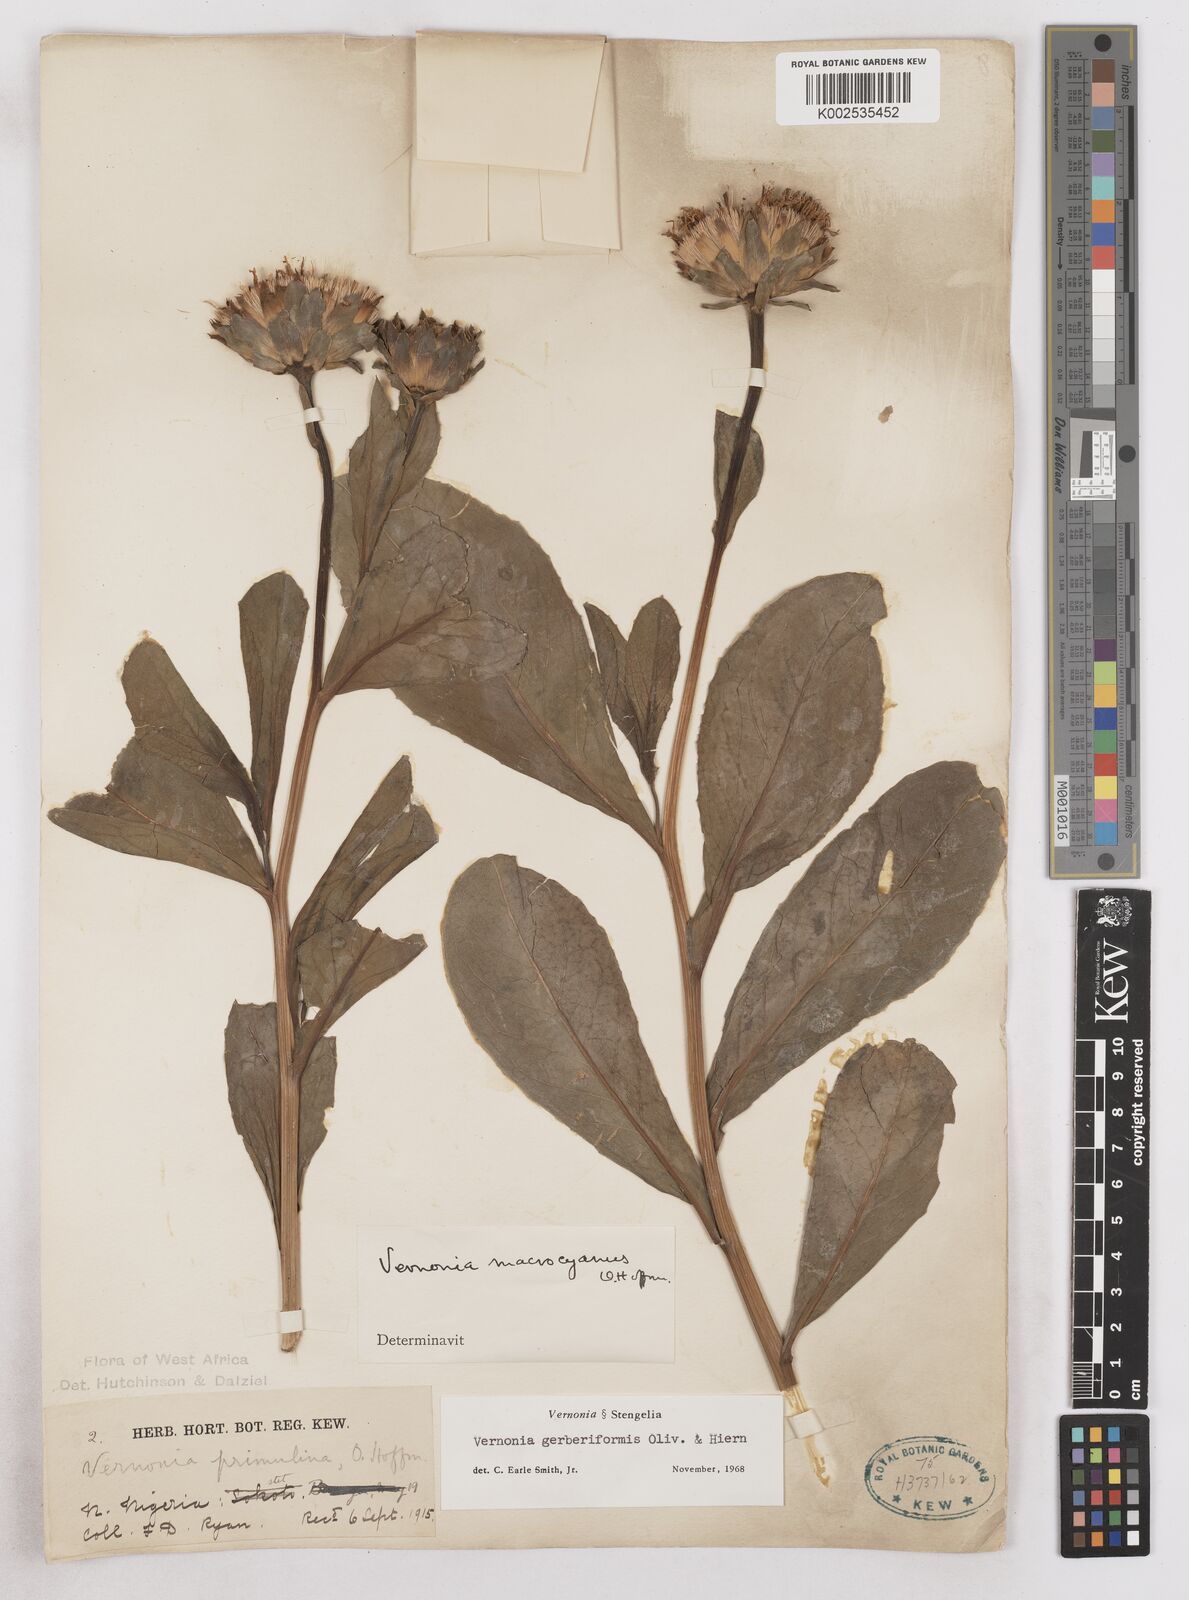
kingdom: Plantae
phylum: Tracheophyta
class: Magnoliopsida
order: Asterales
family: Asteraceae
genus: Linzia
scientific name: Linzia gerberiformis
